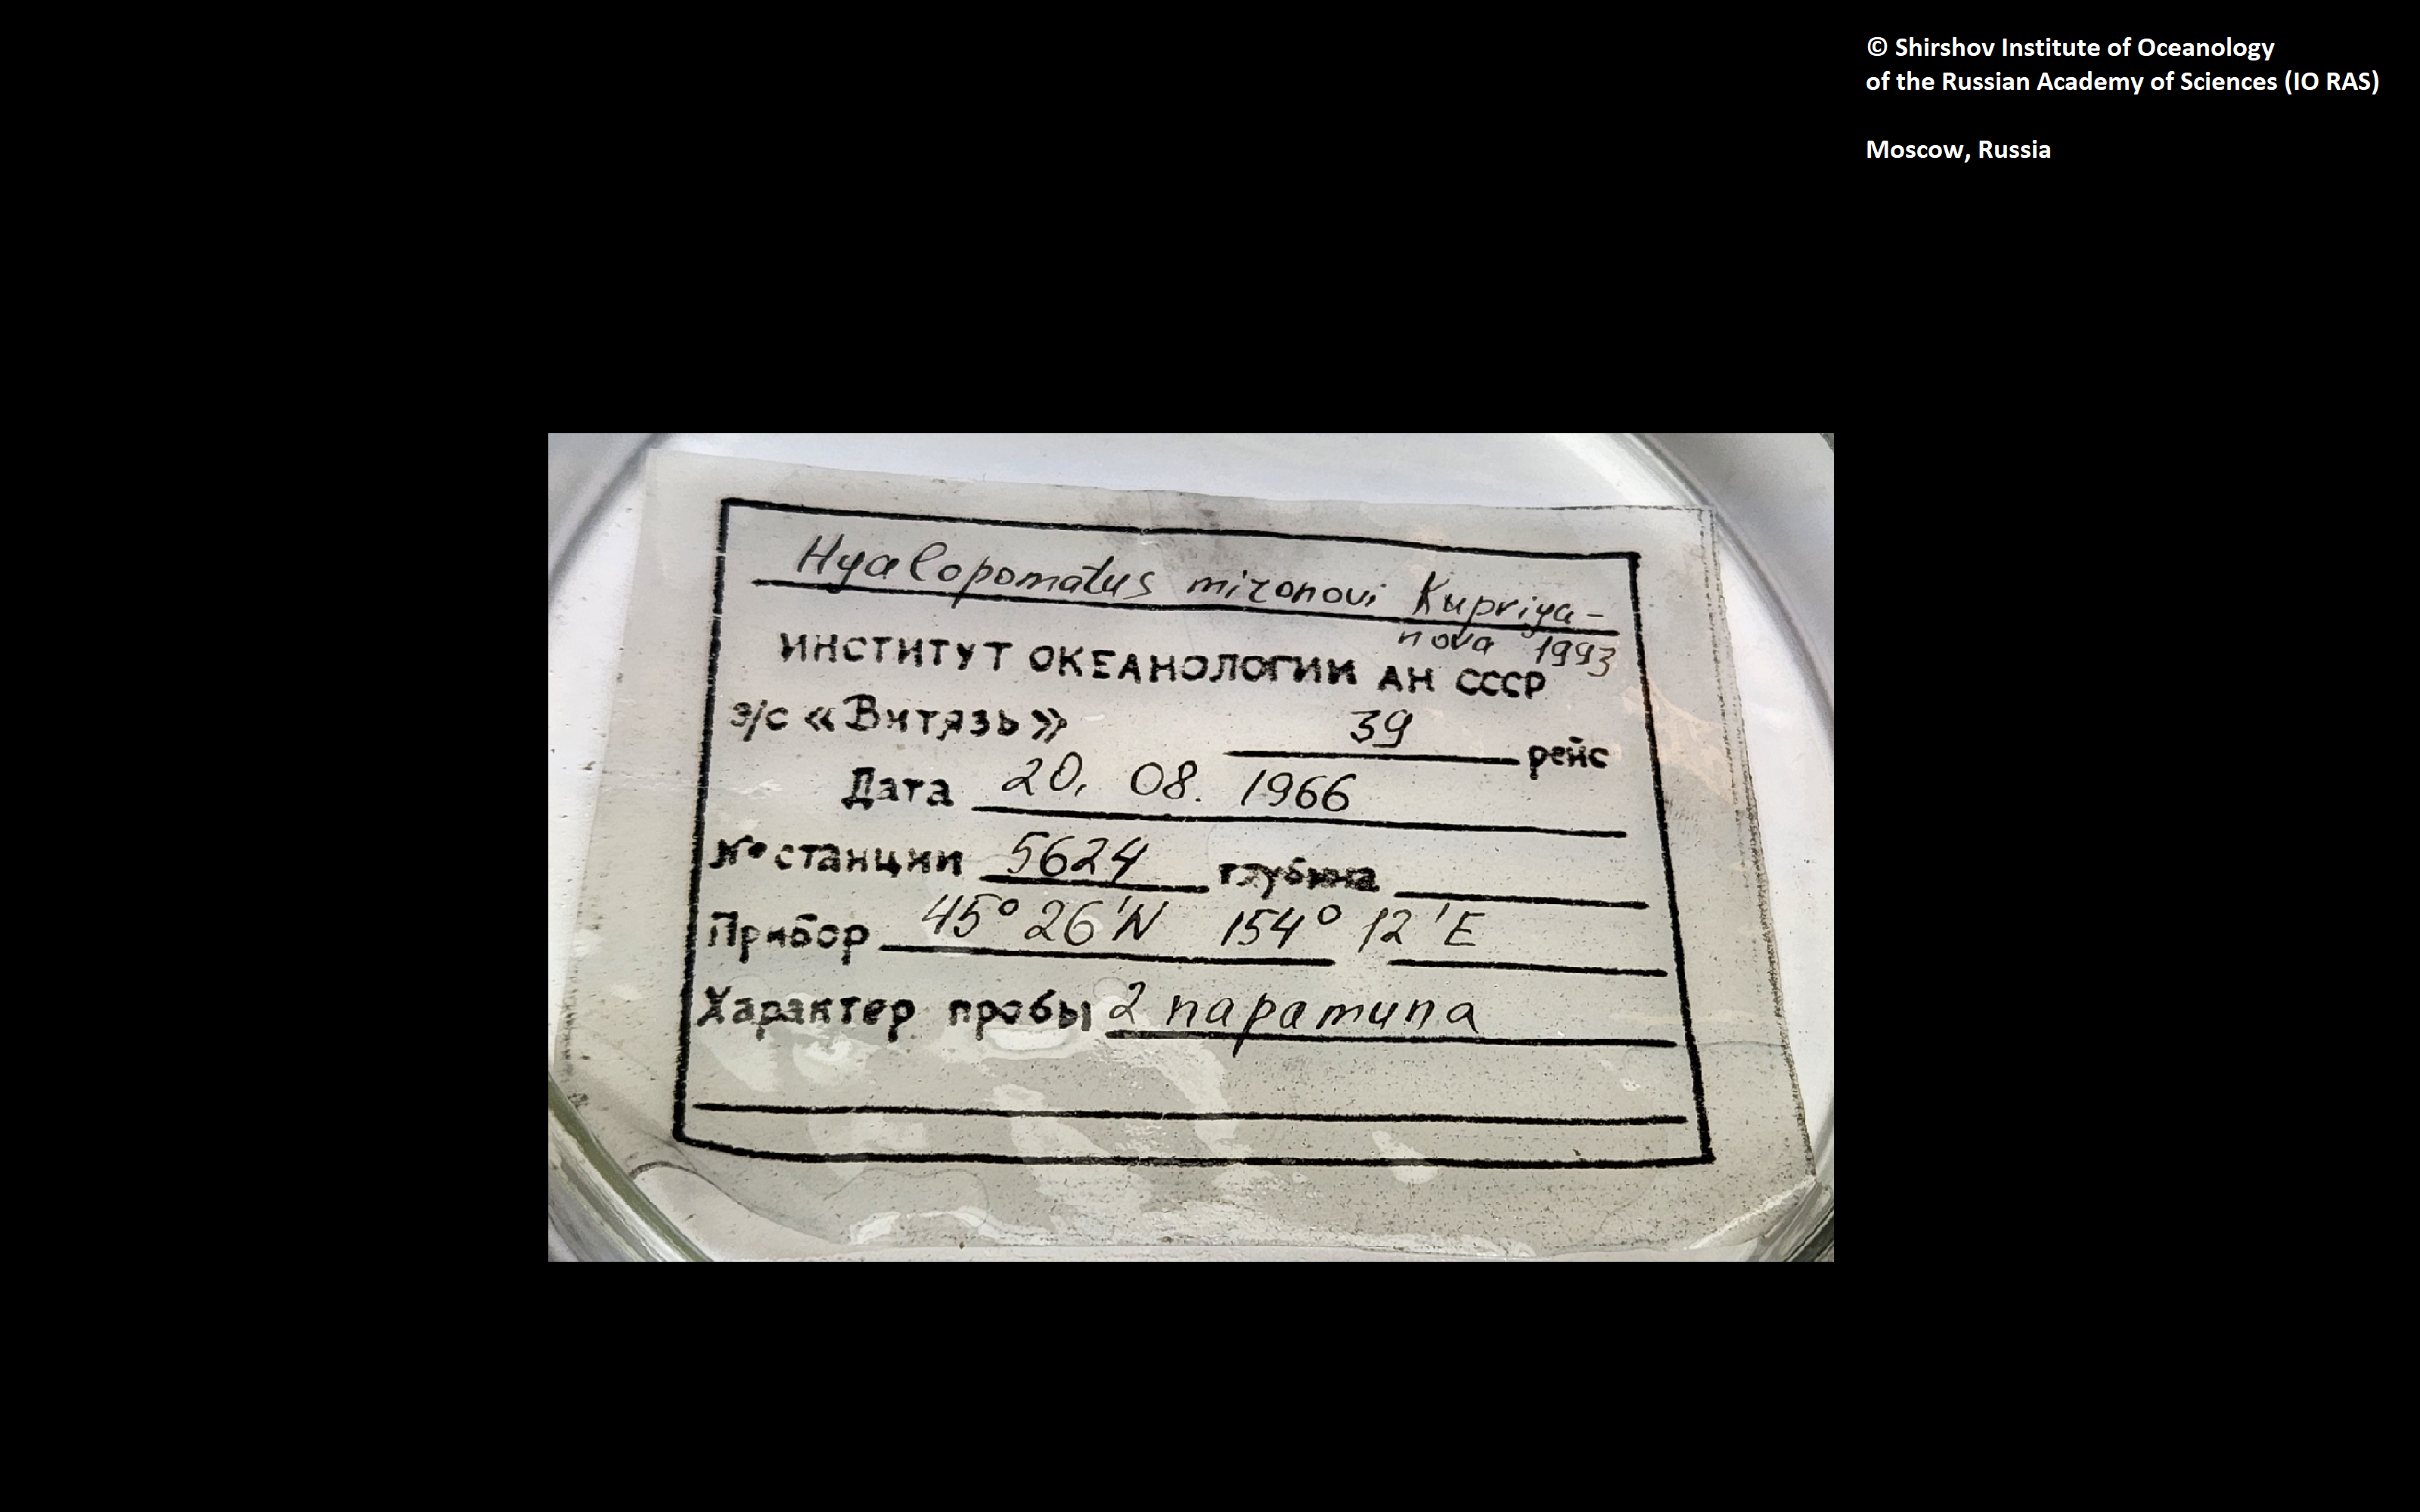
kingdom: Animalia
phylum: Annelida
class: Polychaeta
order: Sabellida
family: Serpulidae
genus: Hyalopomatus
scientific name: Hyalopomatus mironovi
